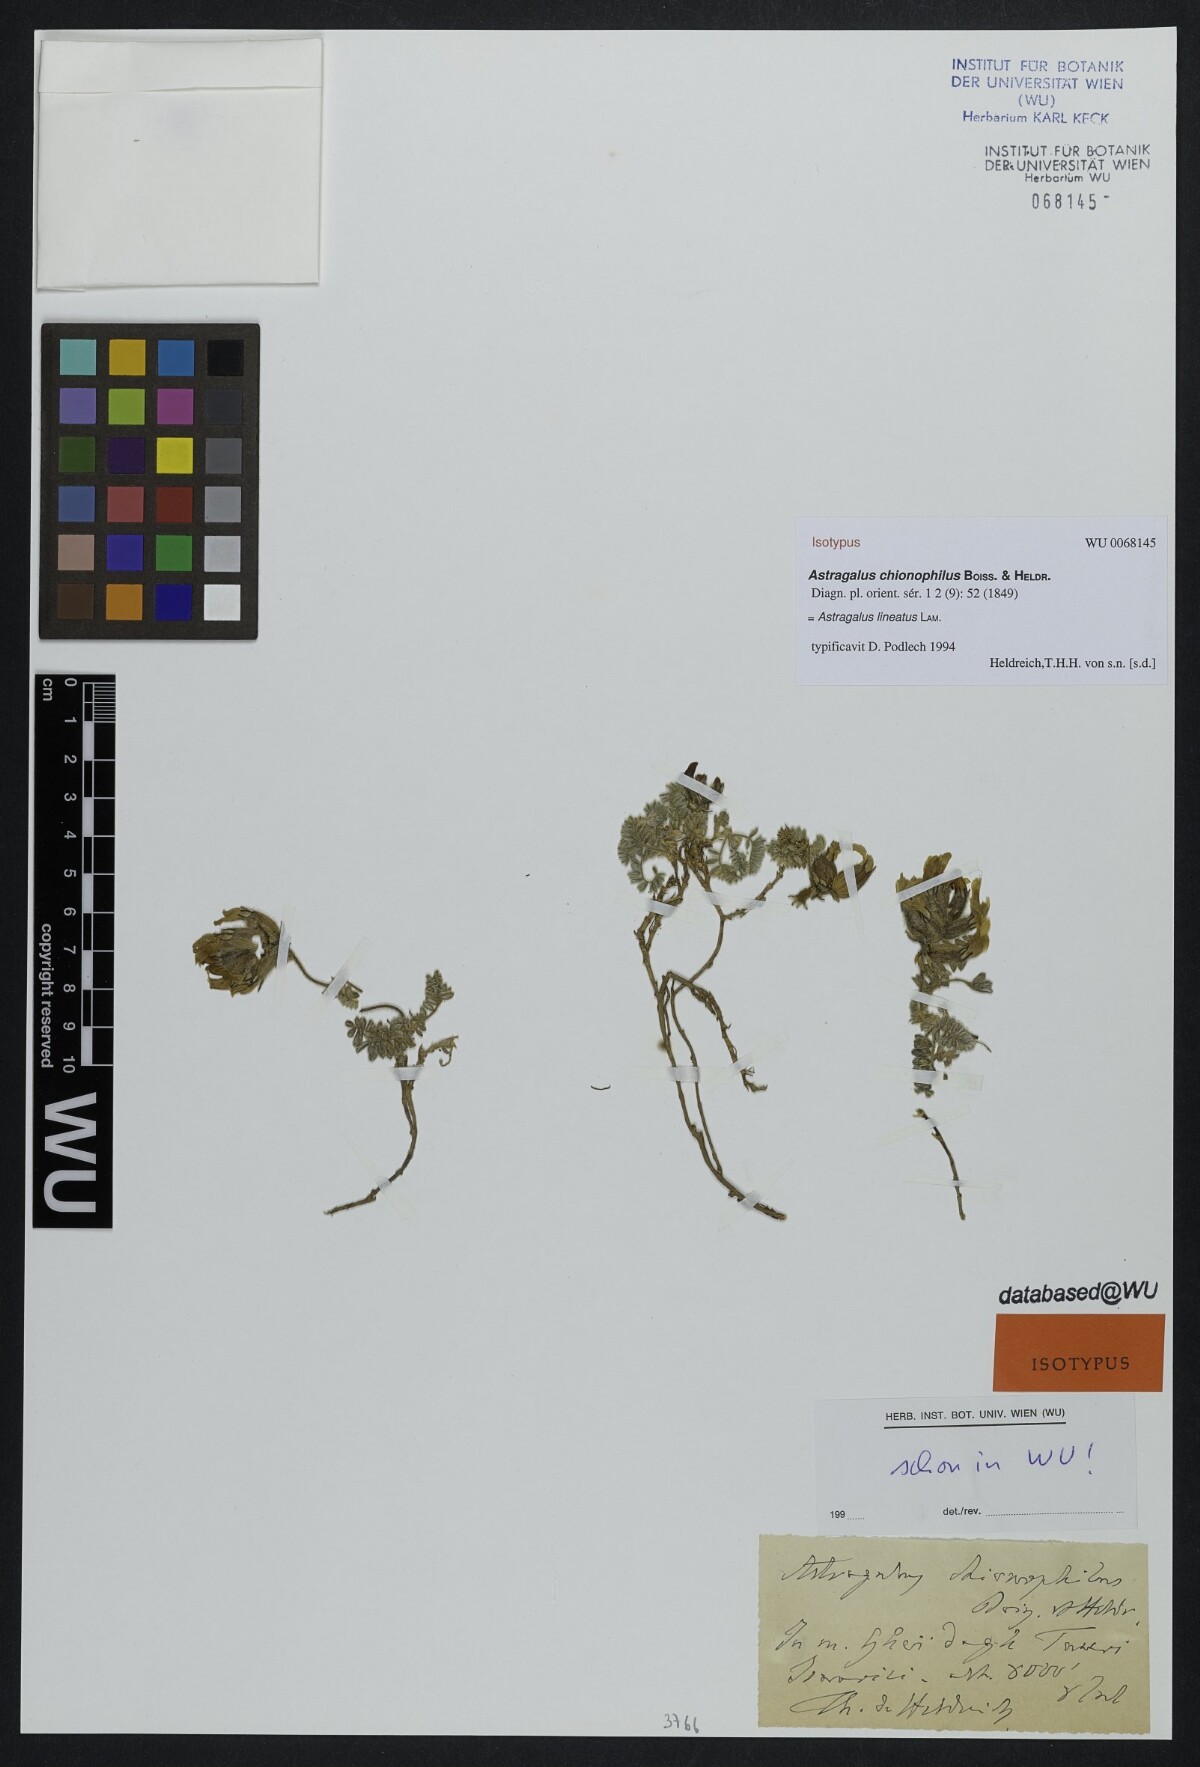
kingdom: Plantae
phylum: Tracheophyta
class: Magnoliopsida
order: Fabales
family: Fabaceae
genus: Astragalus
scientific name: Astragalus lineatus
